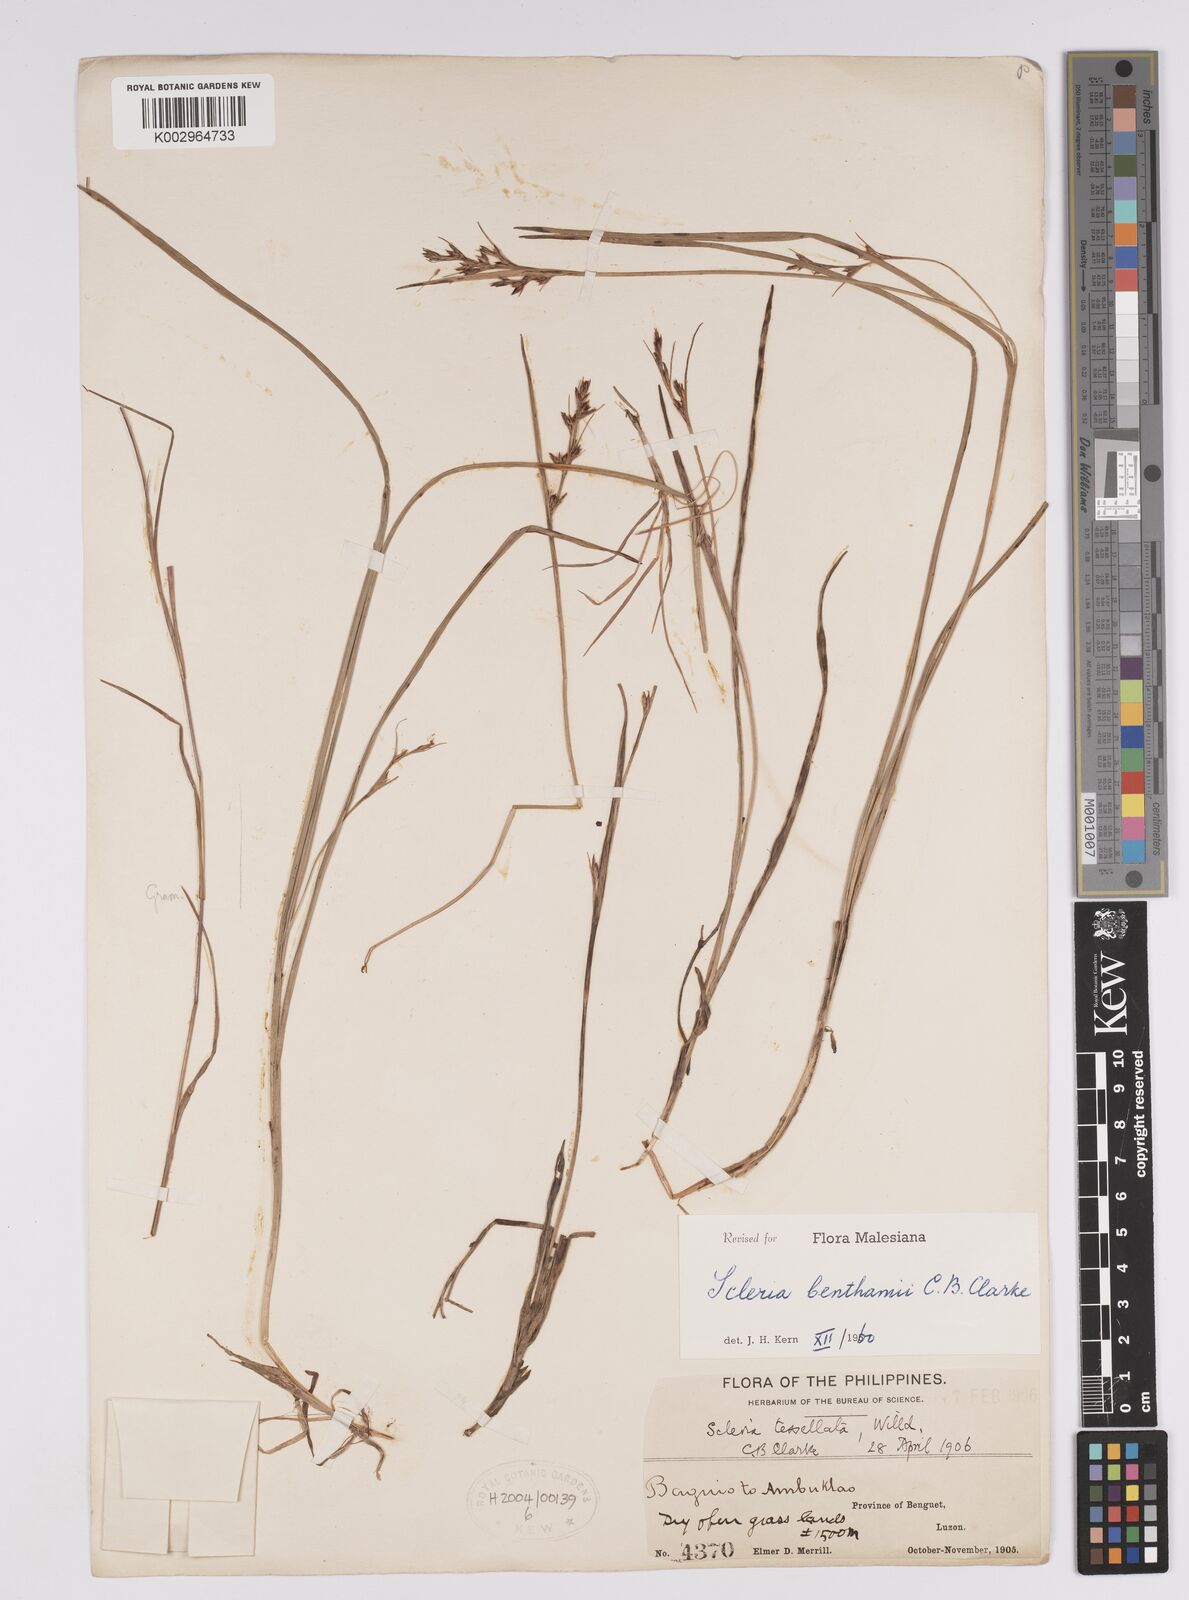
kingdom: Plantae
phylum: Tracheophyta
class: Liliopsida
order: Poales
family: Cyperaceae
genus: Scleria
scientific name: Scleria benthamii
